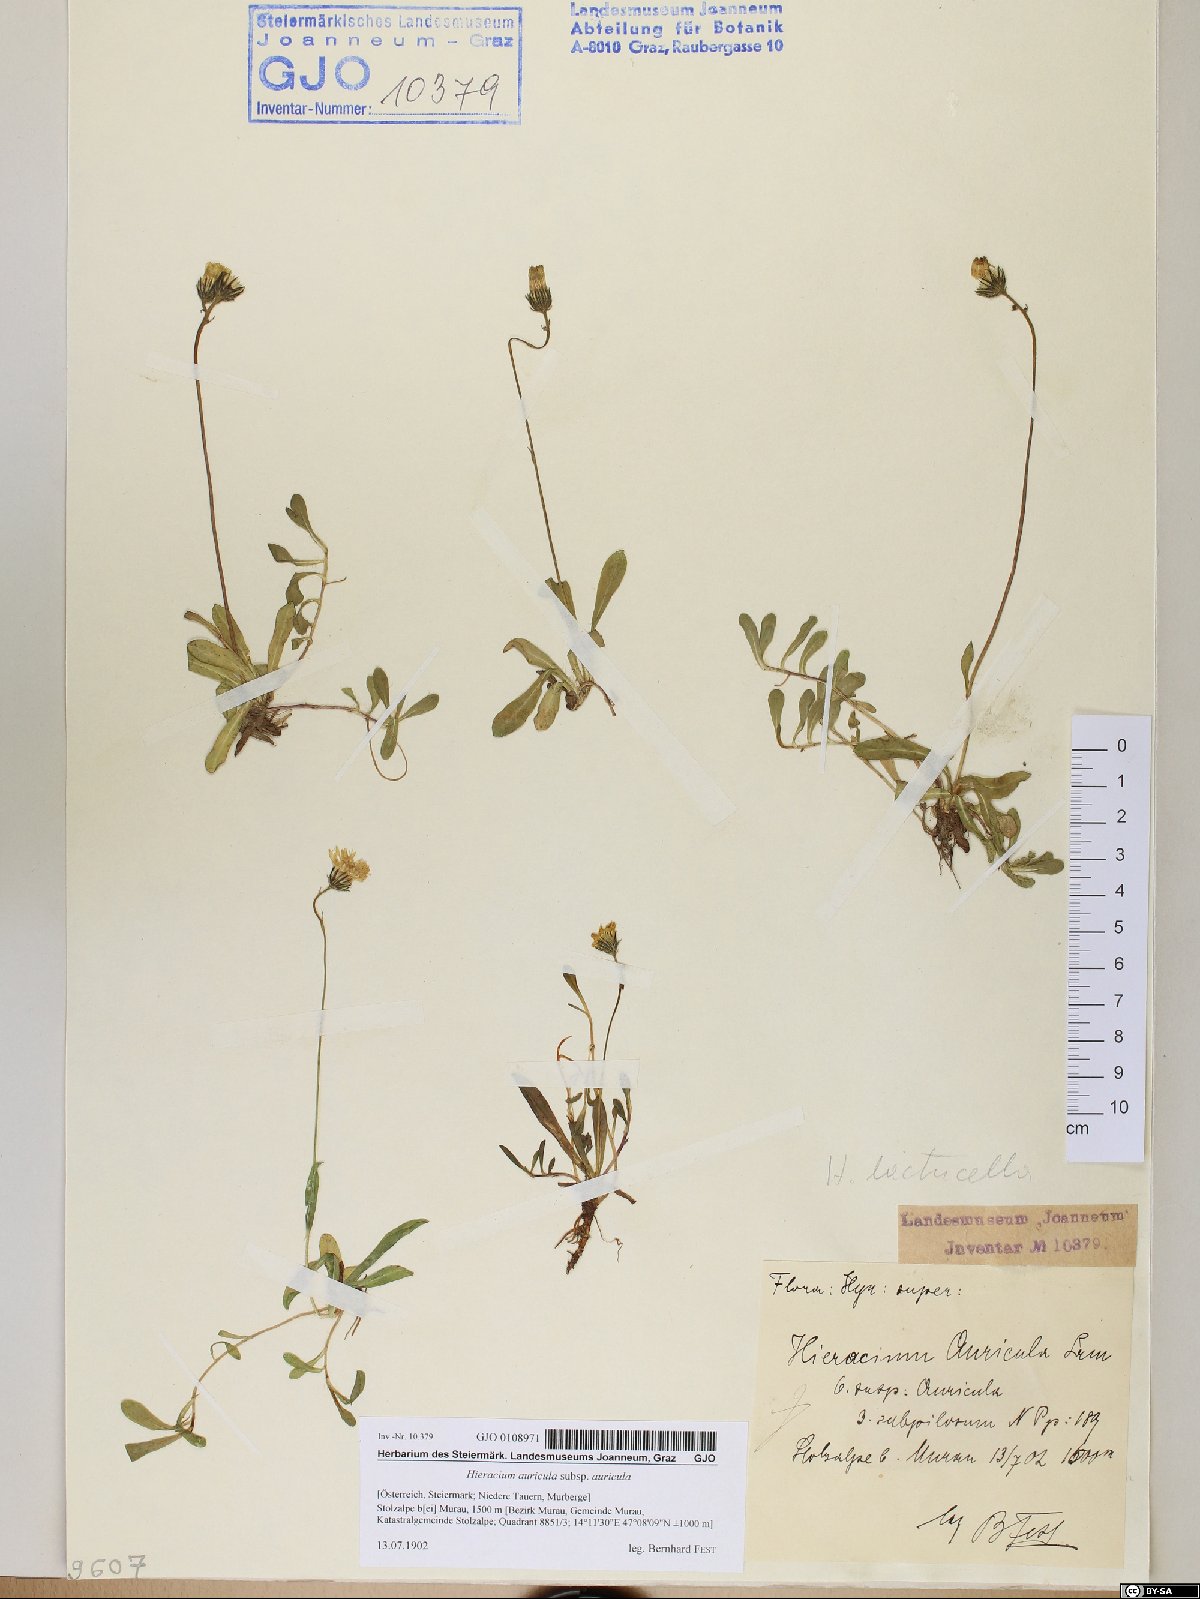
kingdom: Plantae
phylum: Tracheophyta
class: Magnoliopsida
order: Asterales
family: Asteraceae
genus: Hieracium
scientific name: Hieracium auricula
